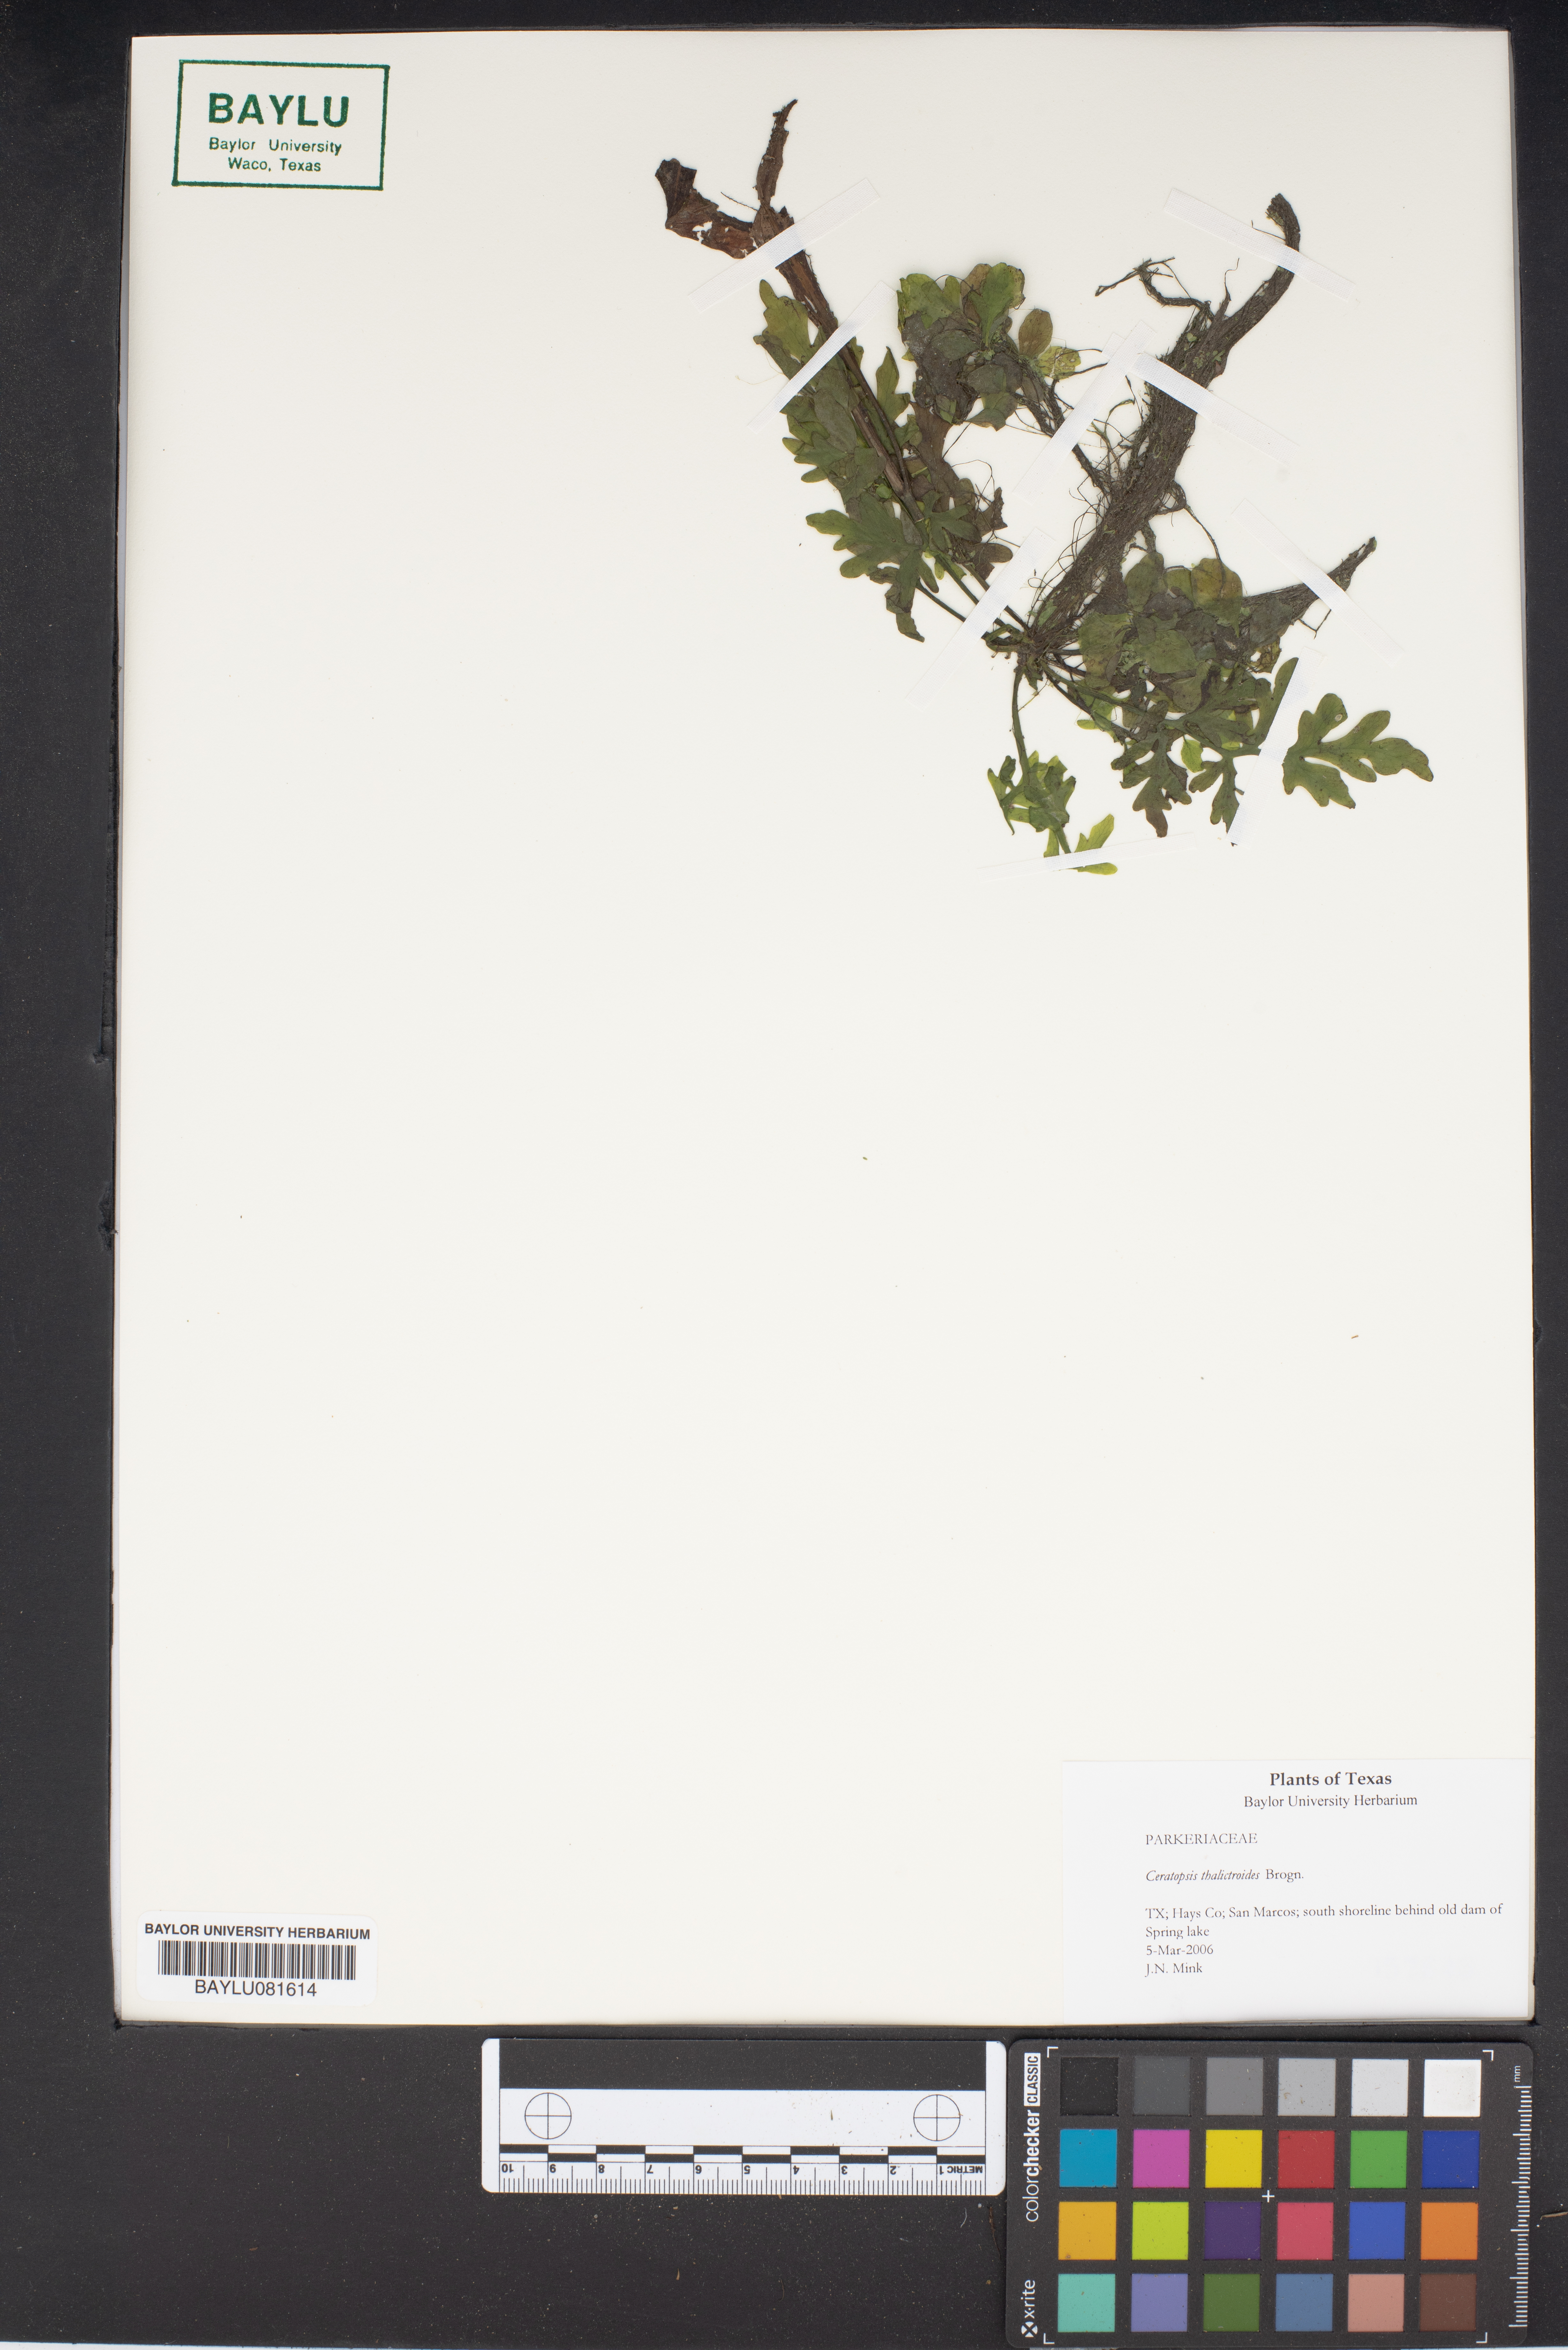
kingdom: Plantae
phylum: Tracheophyta
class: Polypodiopsida
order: Polypodiales
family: Pteridaceae
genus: Ceratopteris
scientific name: Ceratopteris thalictroides
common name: Water fern
